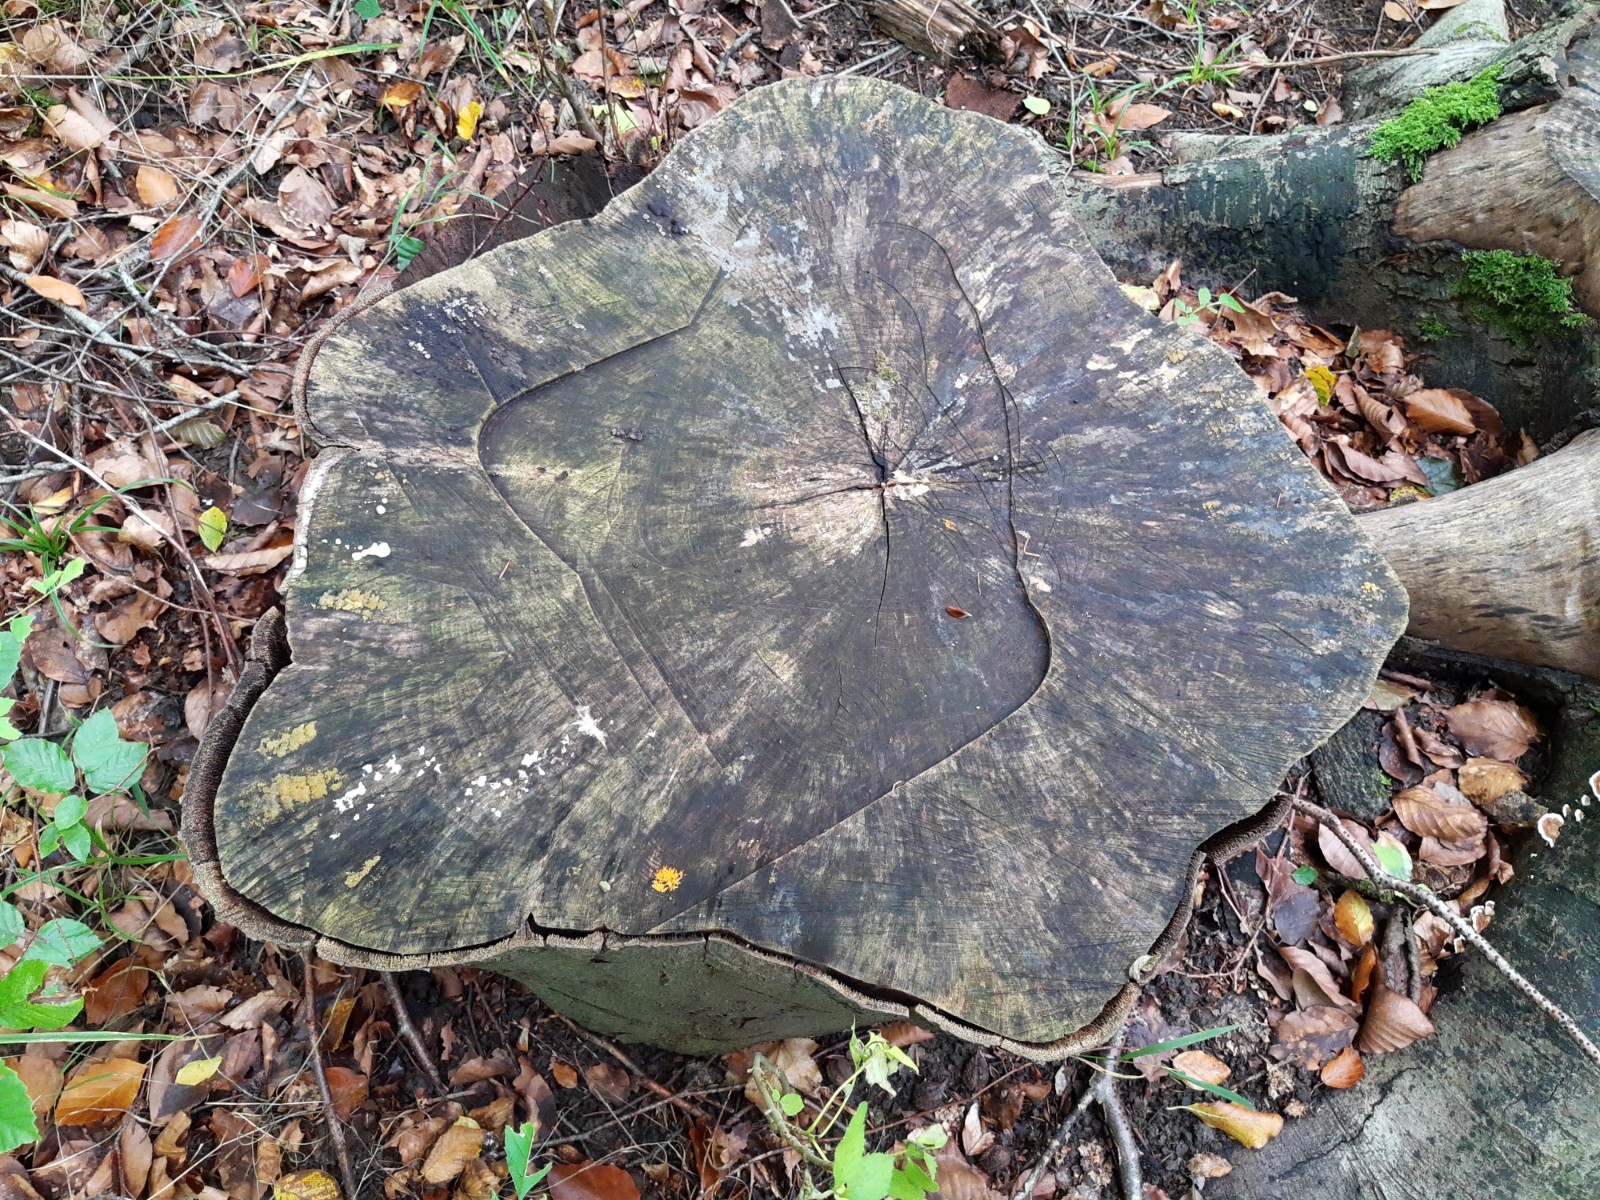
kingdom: Fungi
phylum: Basidiomycota
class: Dacrymycetes
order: Dacrymycetales
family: Dacrymycetaceae
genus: Dacrymyces
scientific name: Dacrymyces lacrymalis
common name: rynket tåresvamp
